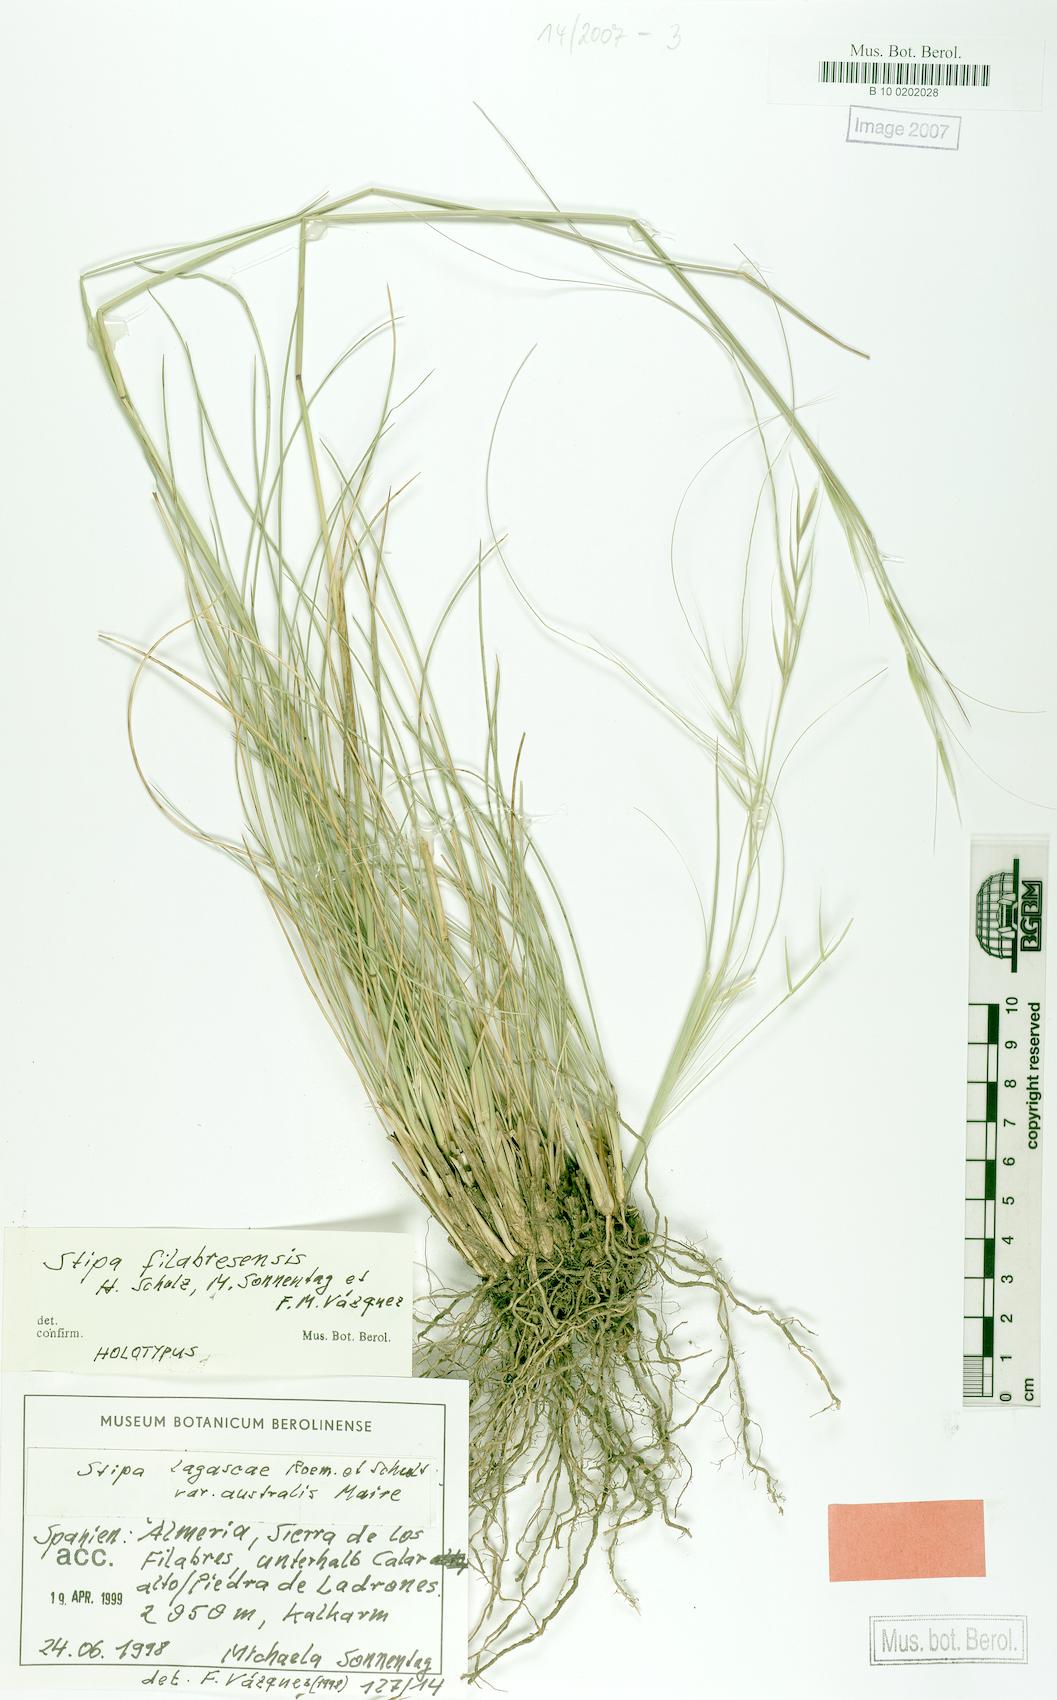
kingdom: Plantae
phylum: Tracheophyta
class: Liliopsida
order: Poales
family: Poaceae
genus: Stipa
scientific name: Stipa lagascae
